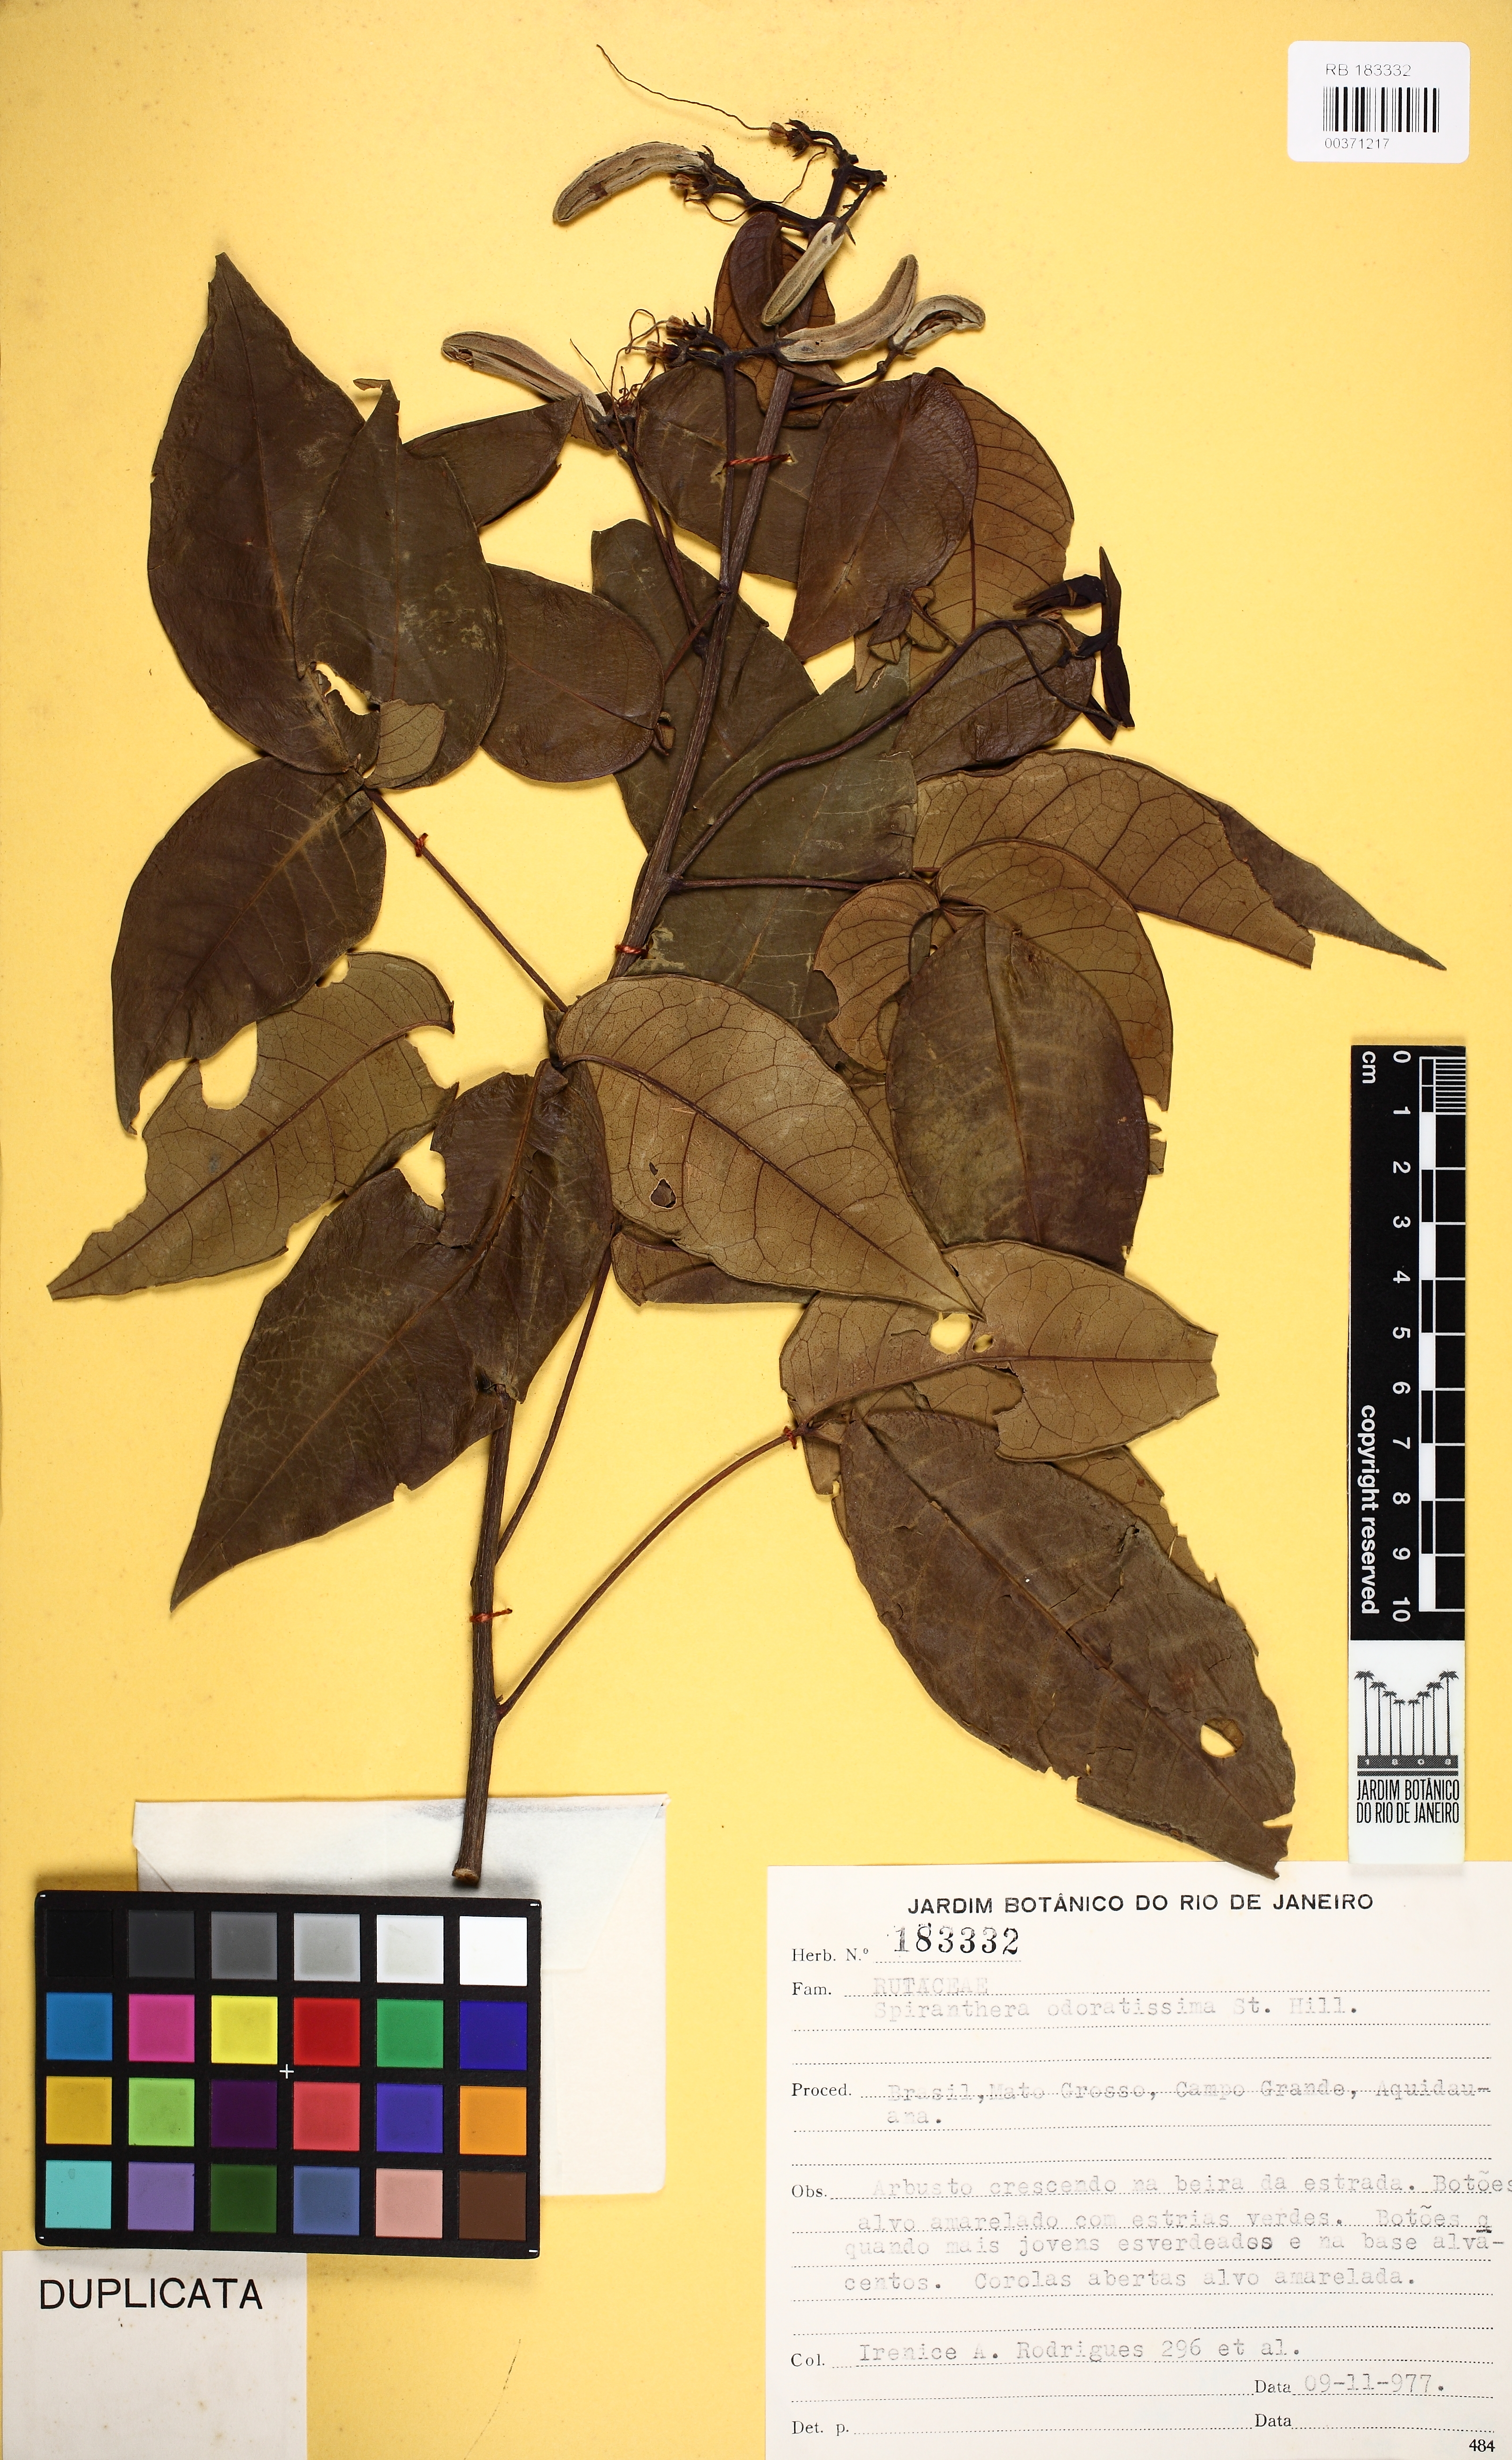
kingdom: Plantae
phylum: Tracheophyta
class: Magnoliopsida
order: Sapindales
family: Rutaceae
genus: Spiranthera
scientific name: Spiranthera odoratissima
